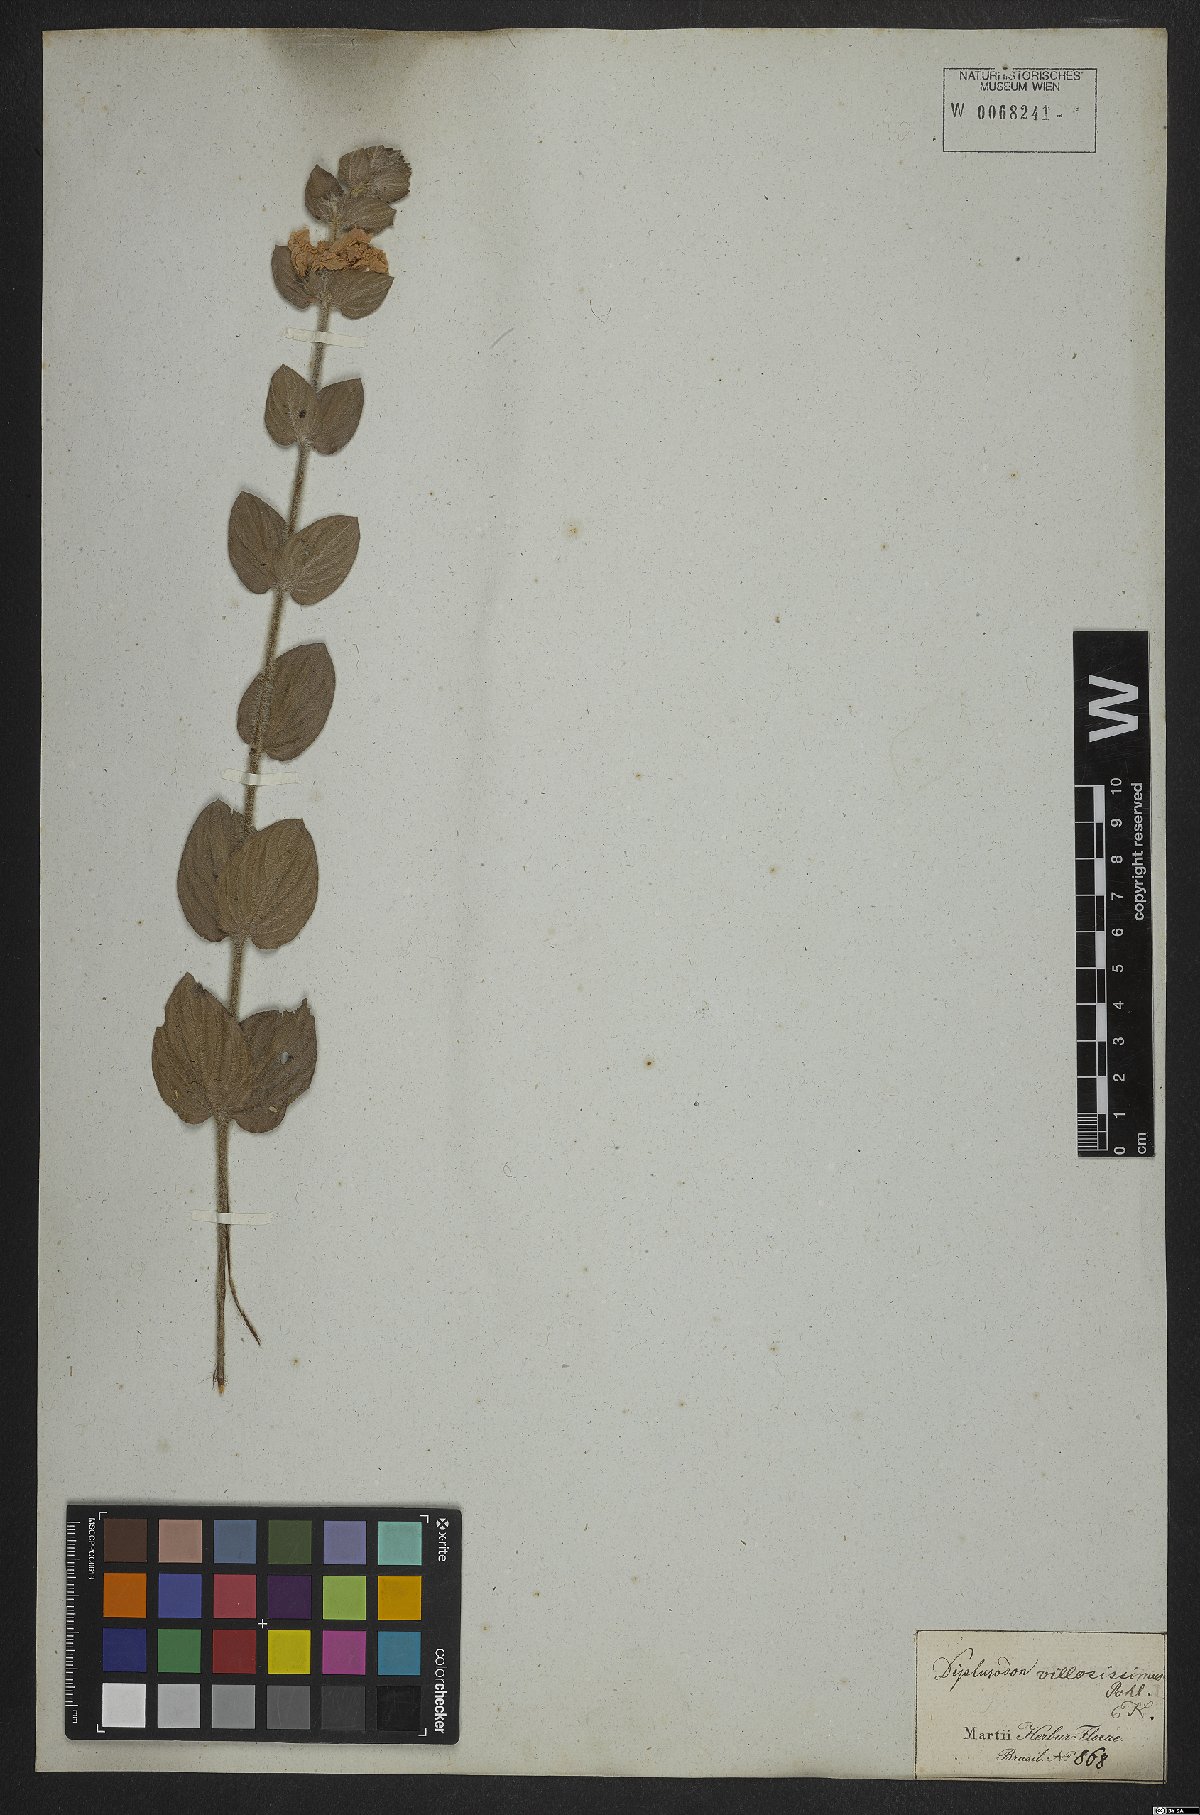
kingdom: Plantae
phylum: Tracheophyta
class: Magnoliopsida
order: Myrtales
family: Lythraceae
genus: Diplusodon
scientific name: Diplusodon villosissimus
